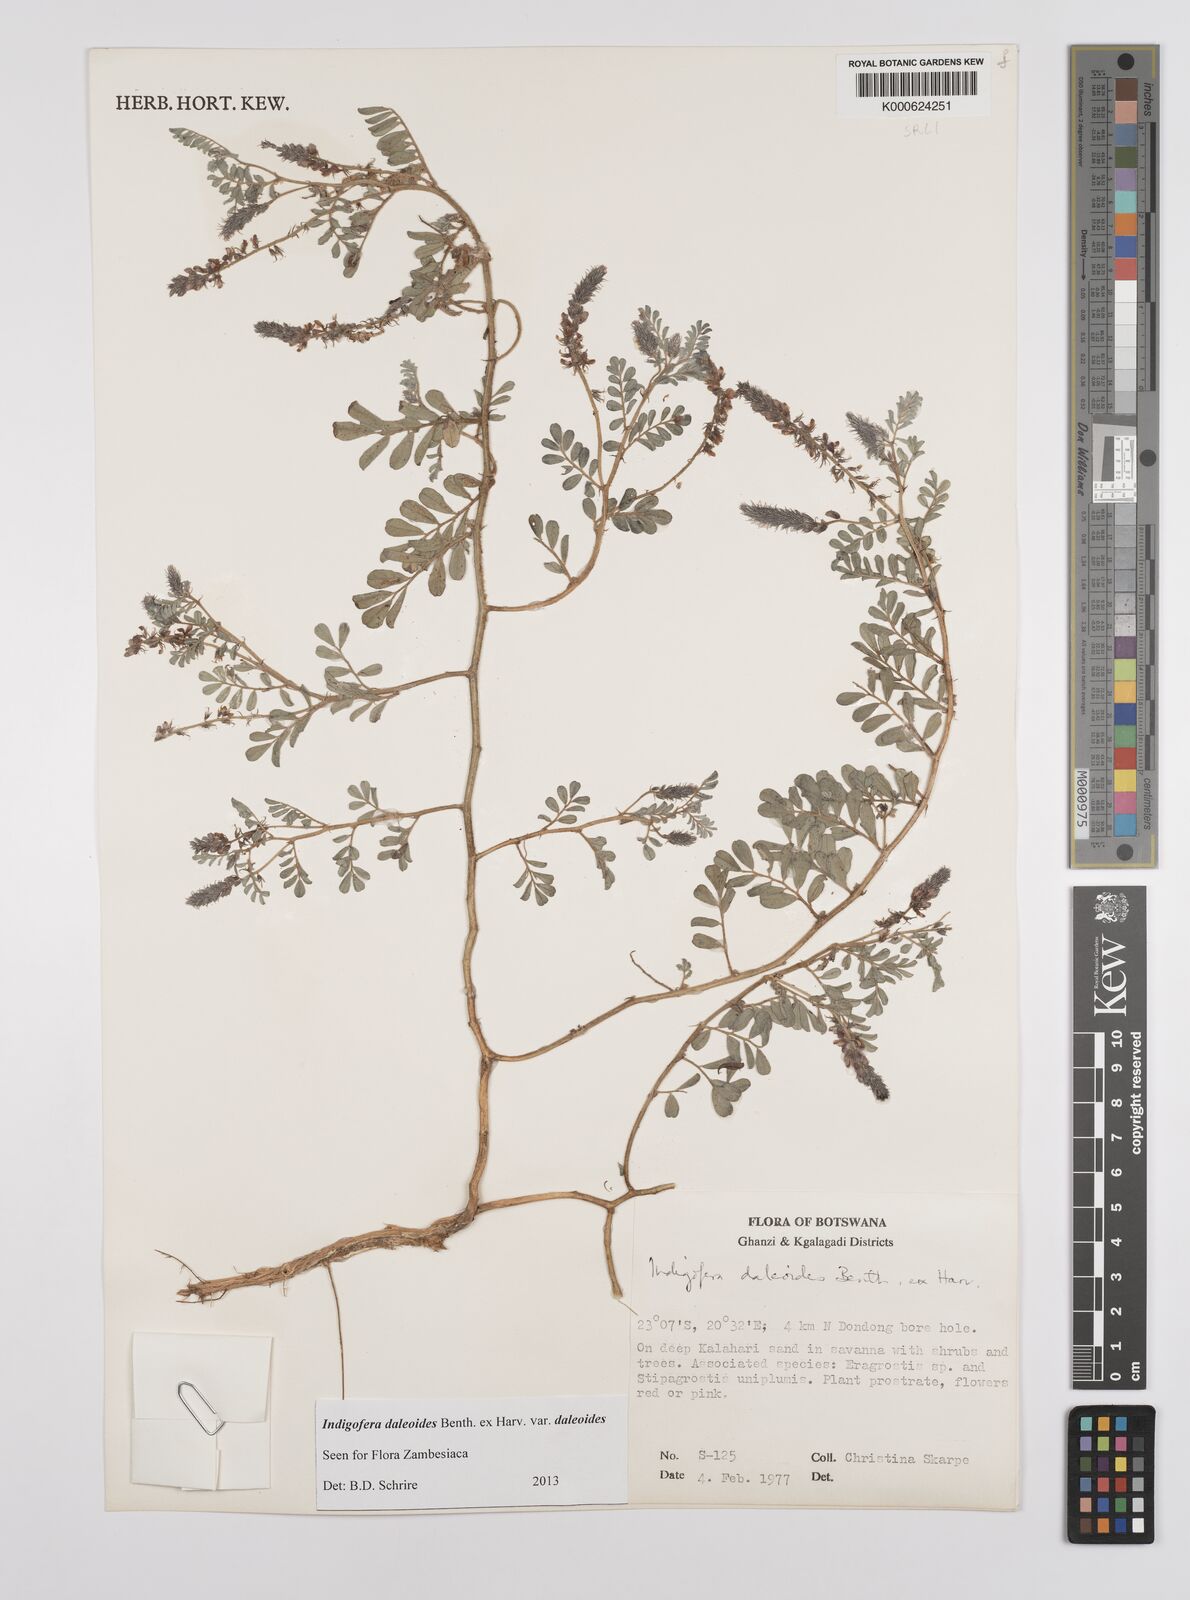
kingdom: Plantae
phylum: Tracheophyta
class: Magnoliopsida
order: Fabales
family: Fabaceae
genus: Indigofera
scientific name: Indigofera daleoides
